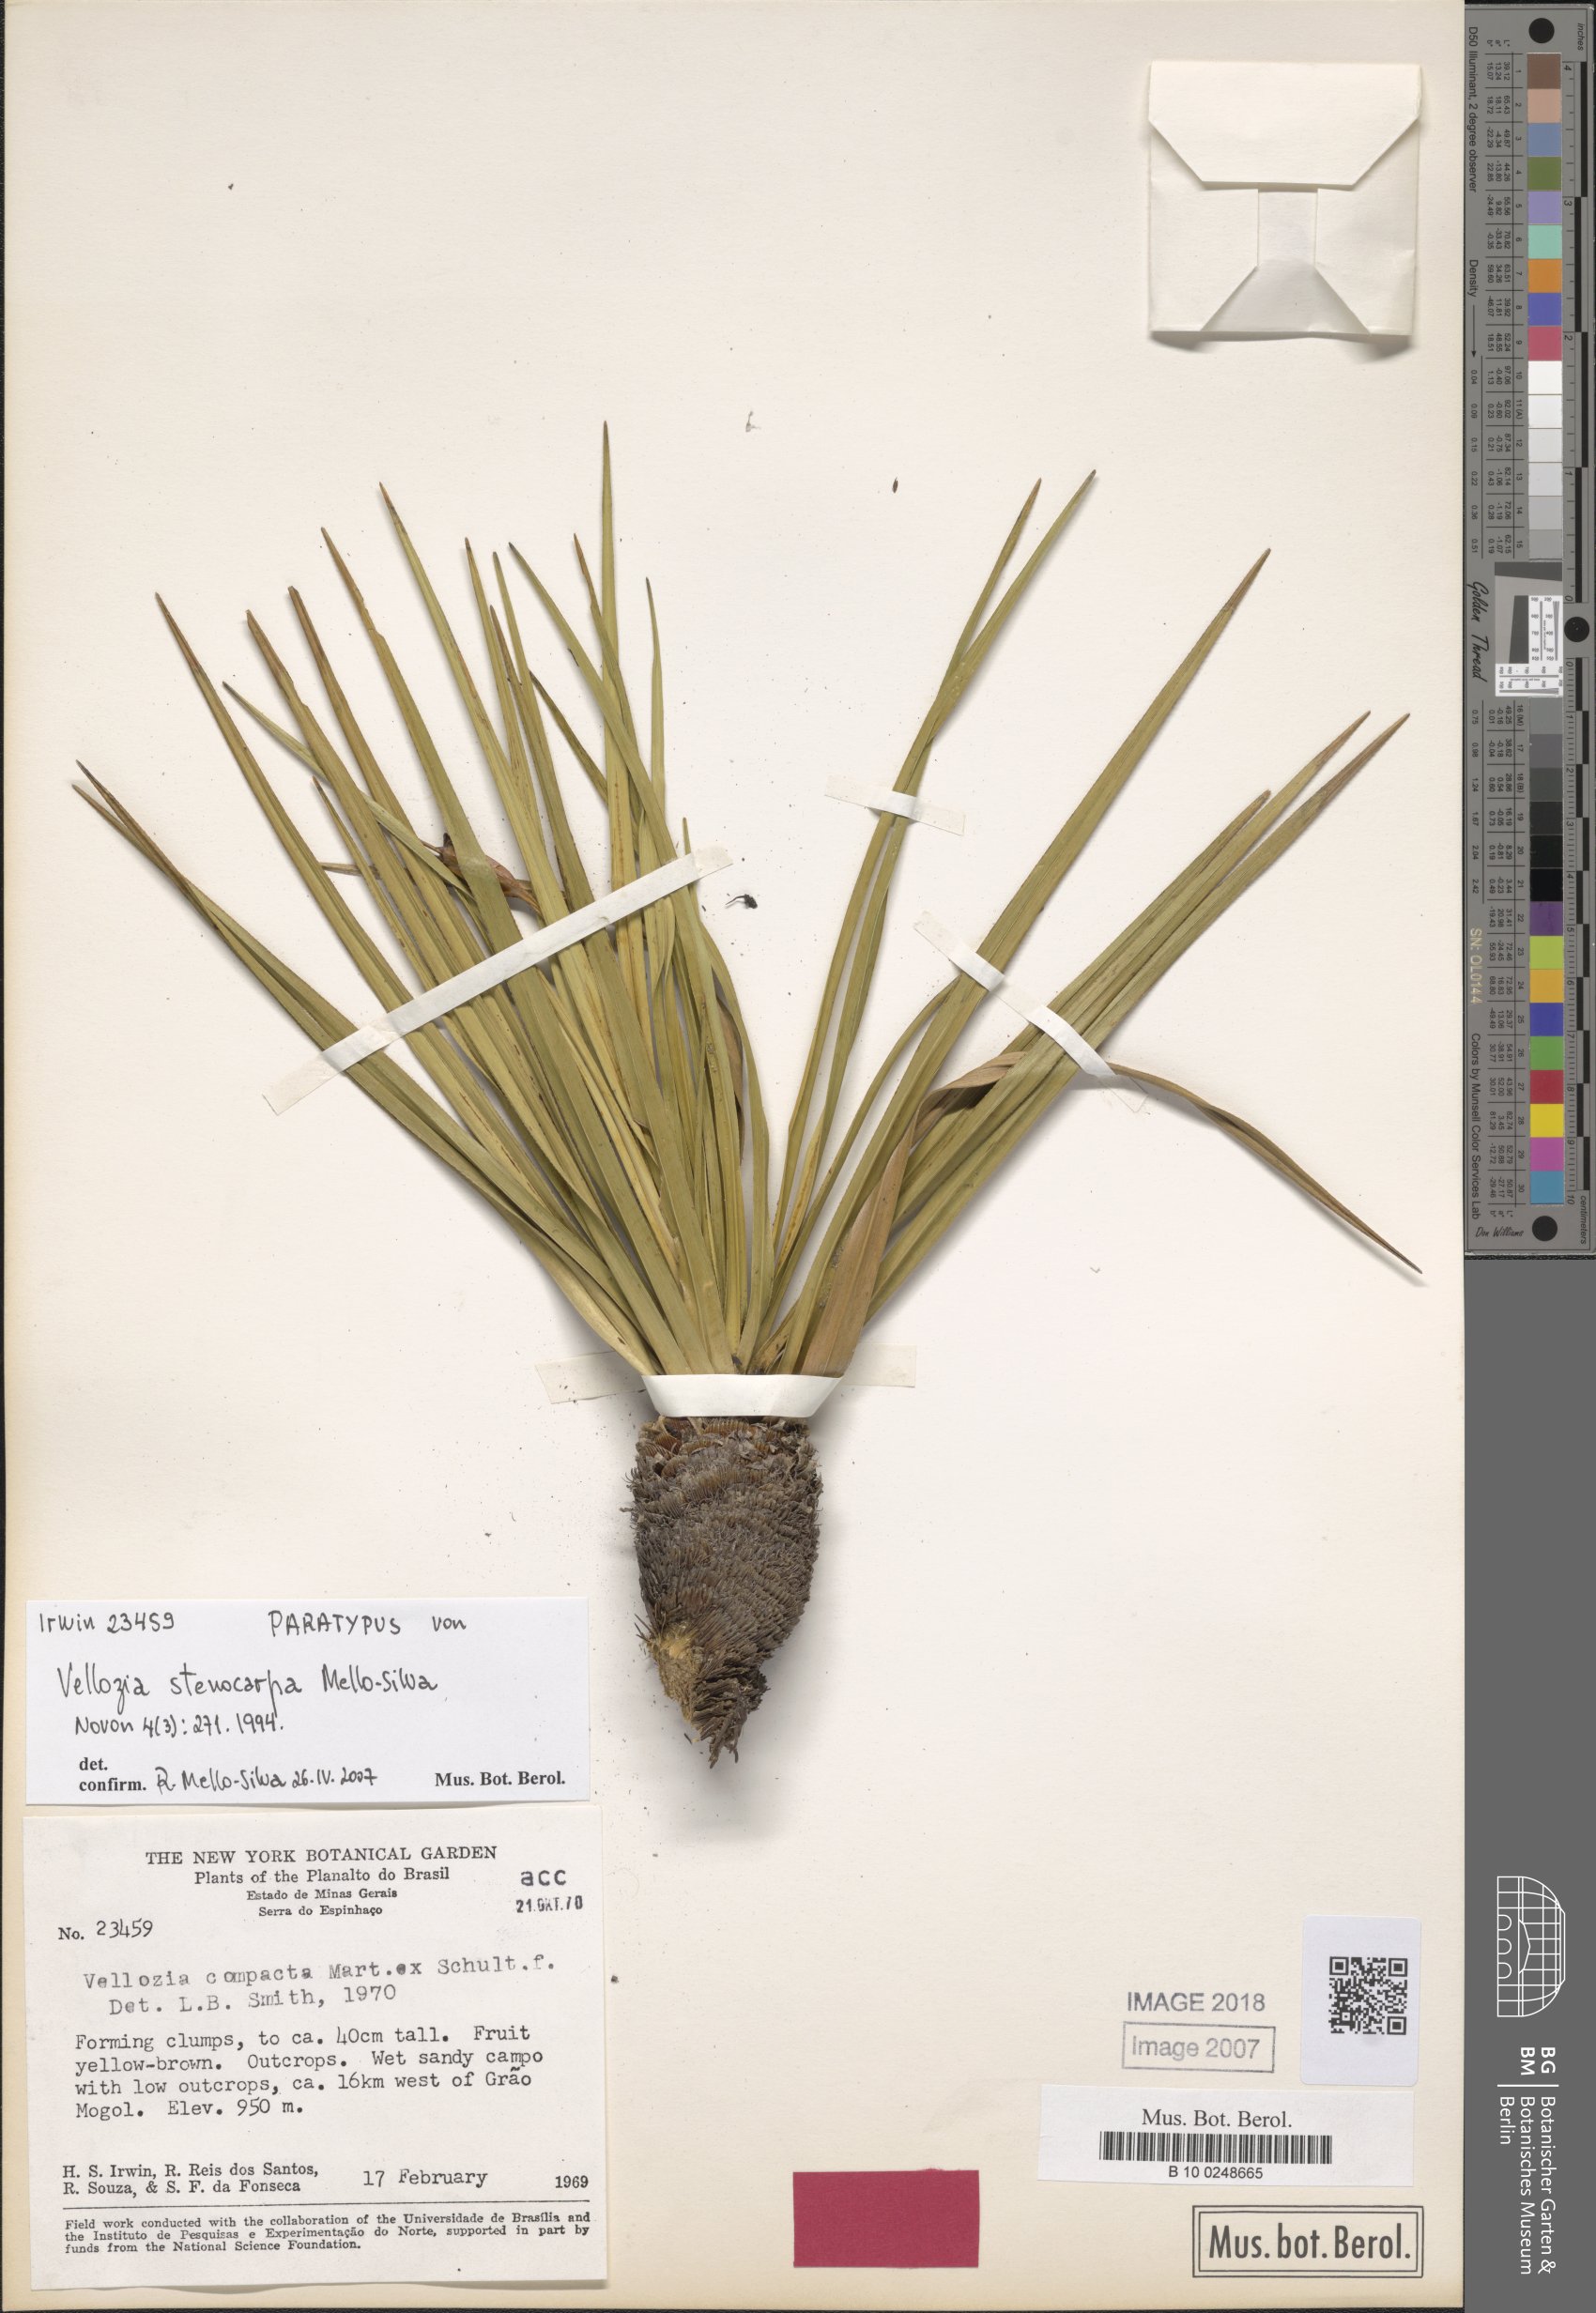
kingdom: Plantae
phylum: Tracheophyta
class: Liliopsida
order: Pandanales
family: Velloziaceae
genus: Vellozia
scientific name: Vellozia compacta
